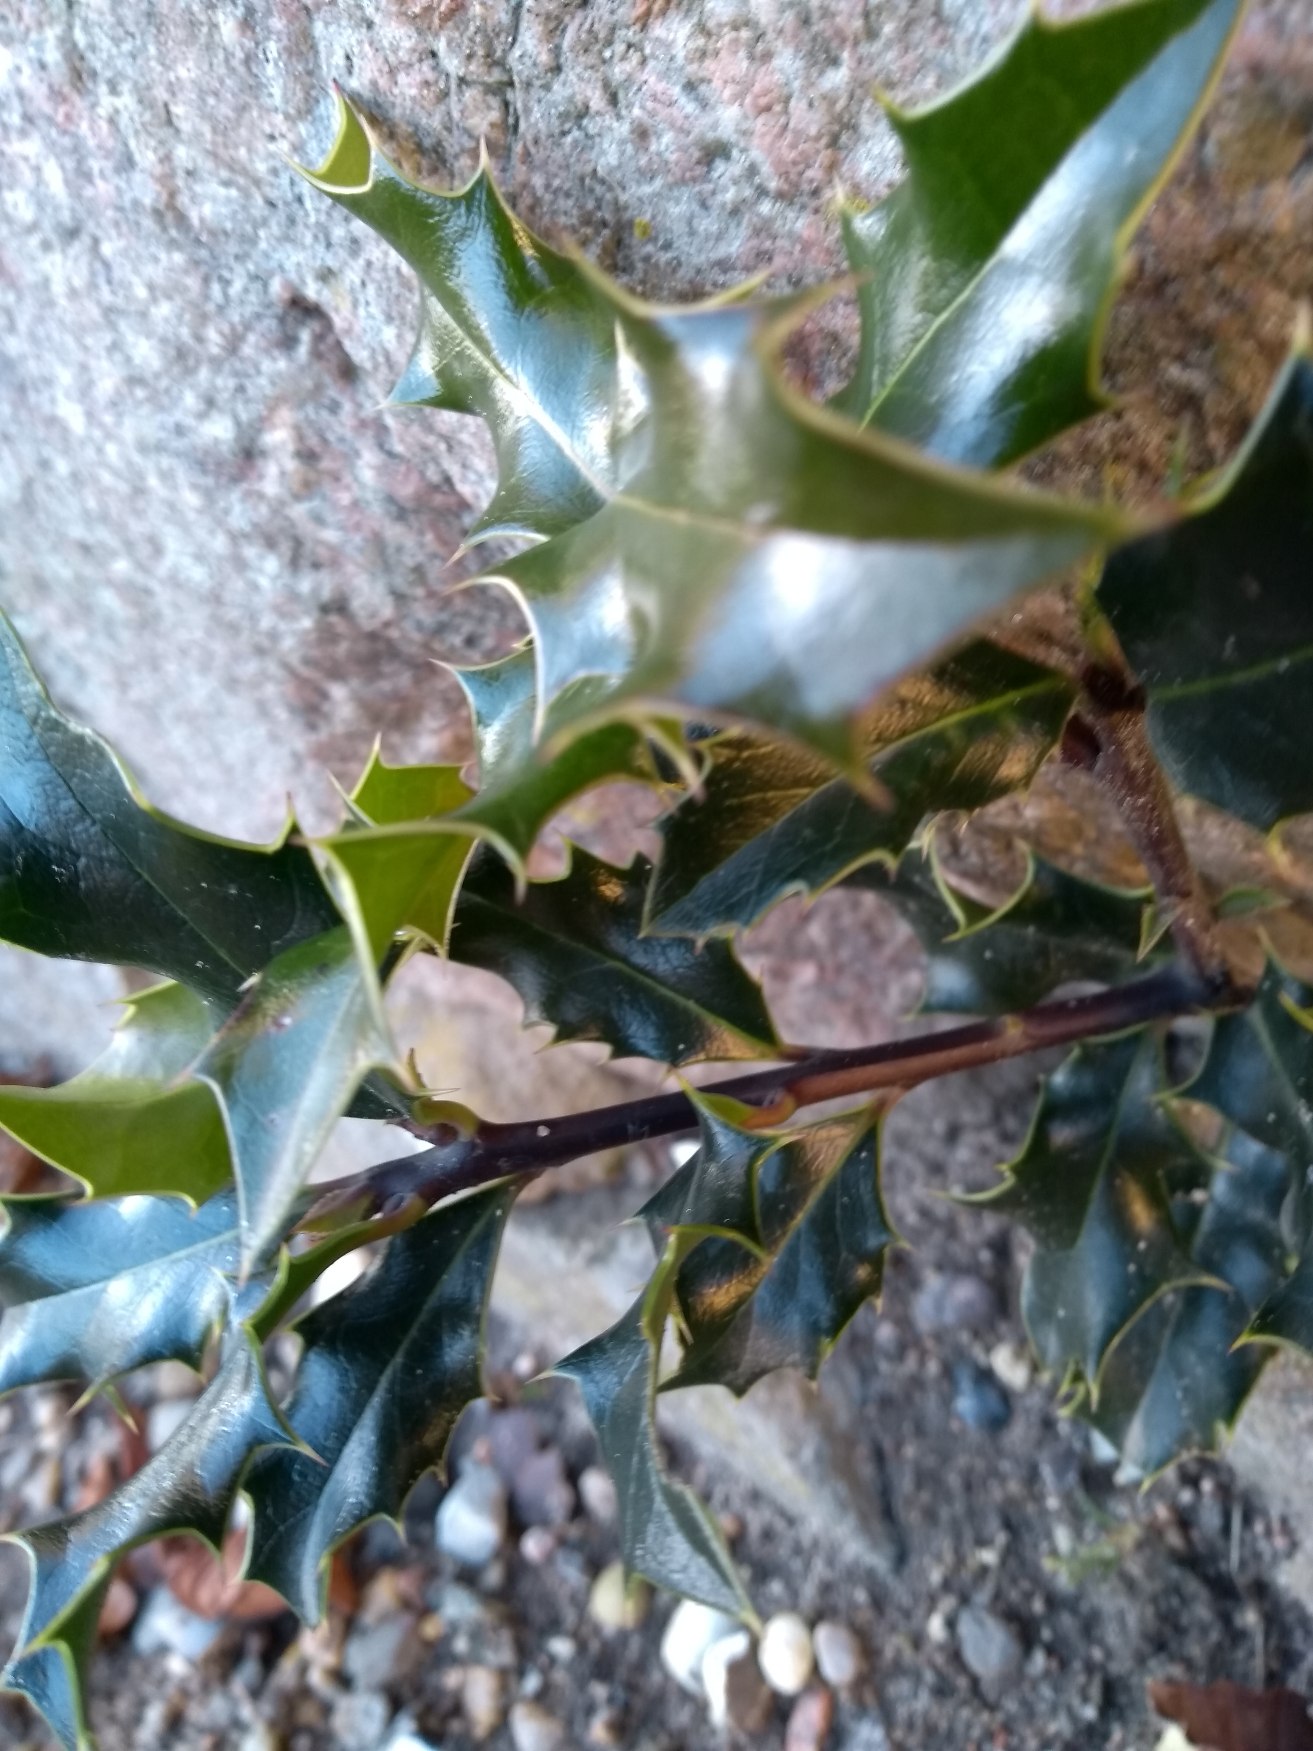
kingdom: Plantae
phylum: Tracheophyta
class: Magnoliopsida
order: Aquifoliales
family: Aquifoliaceae
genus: Ilex
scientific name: Ilex aquifolium
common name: Kristtorn
